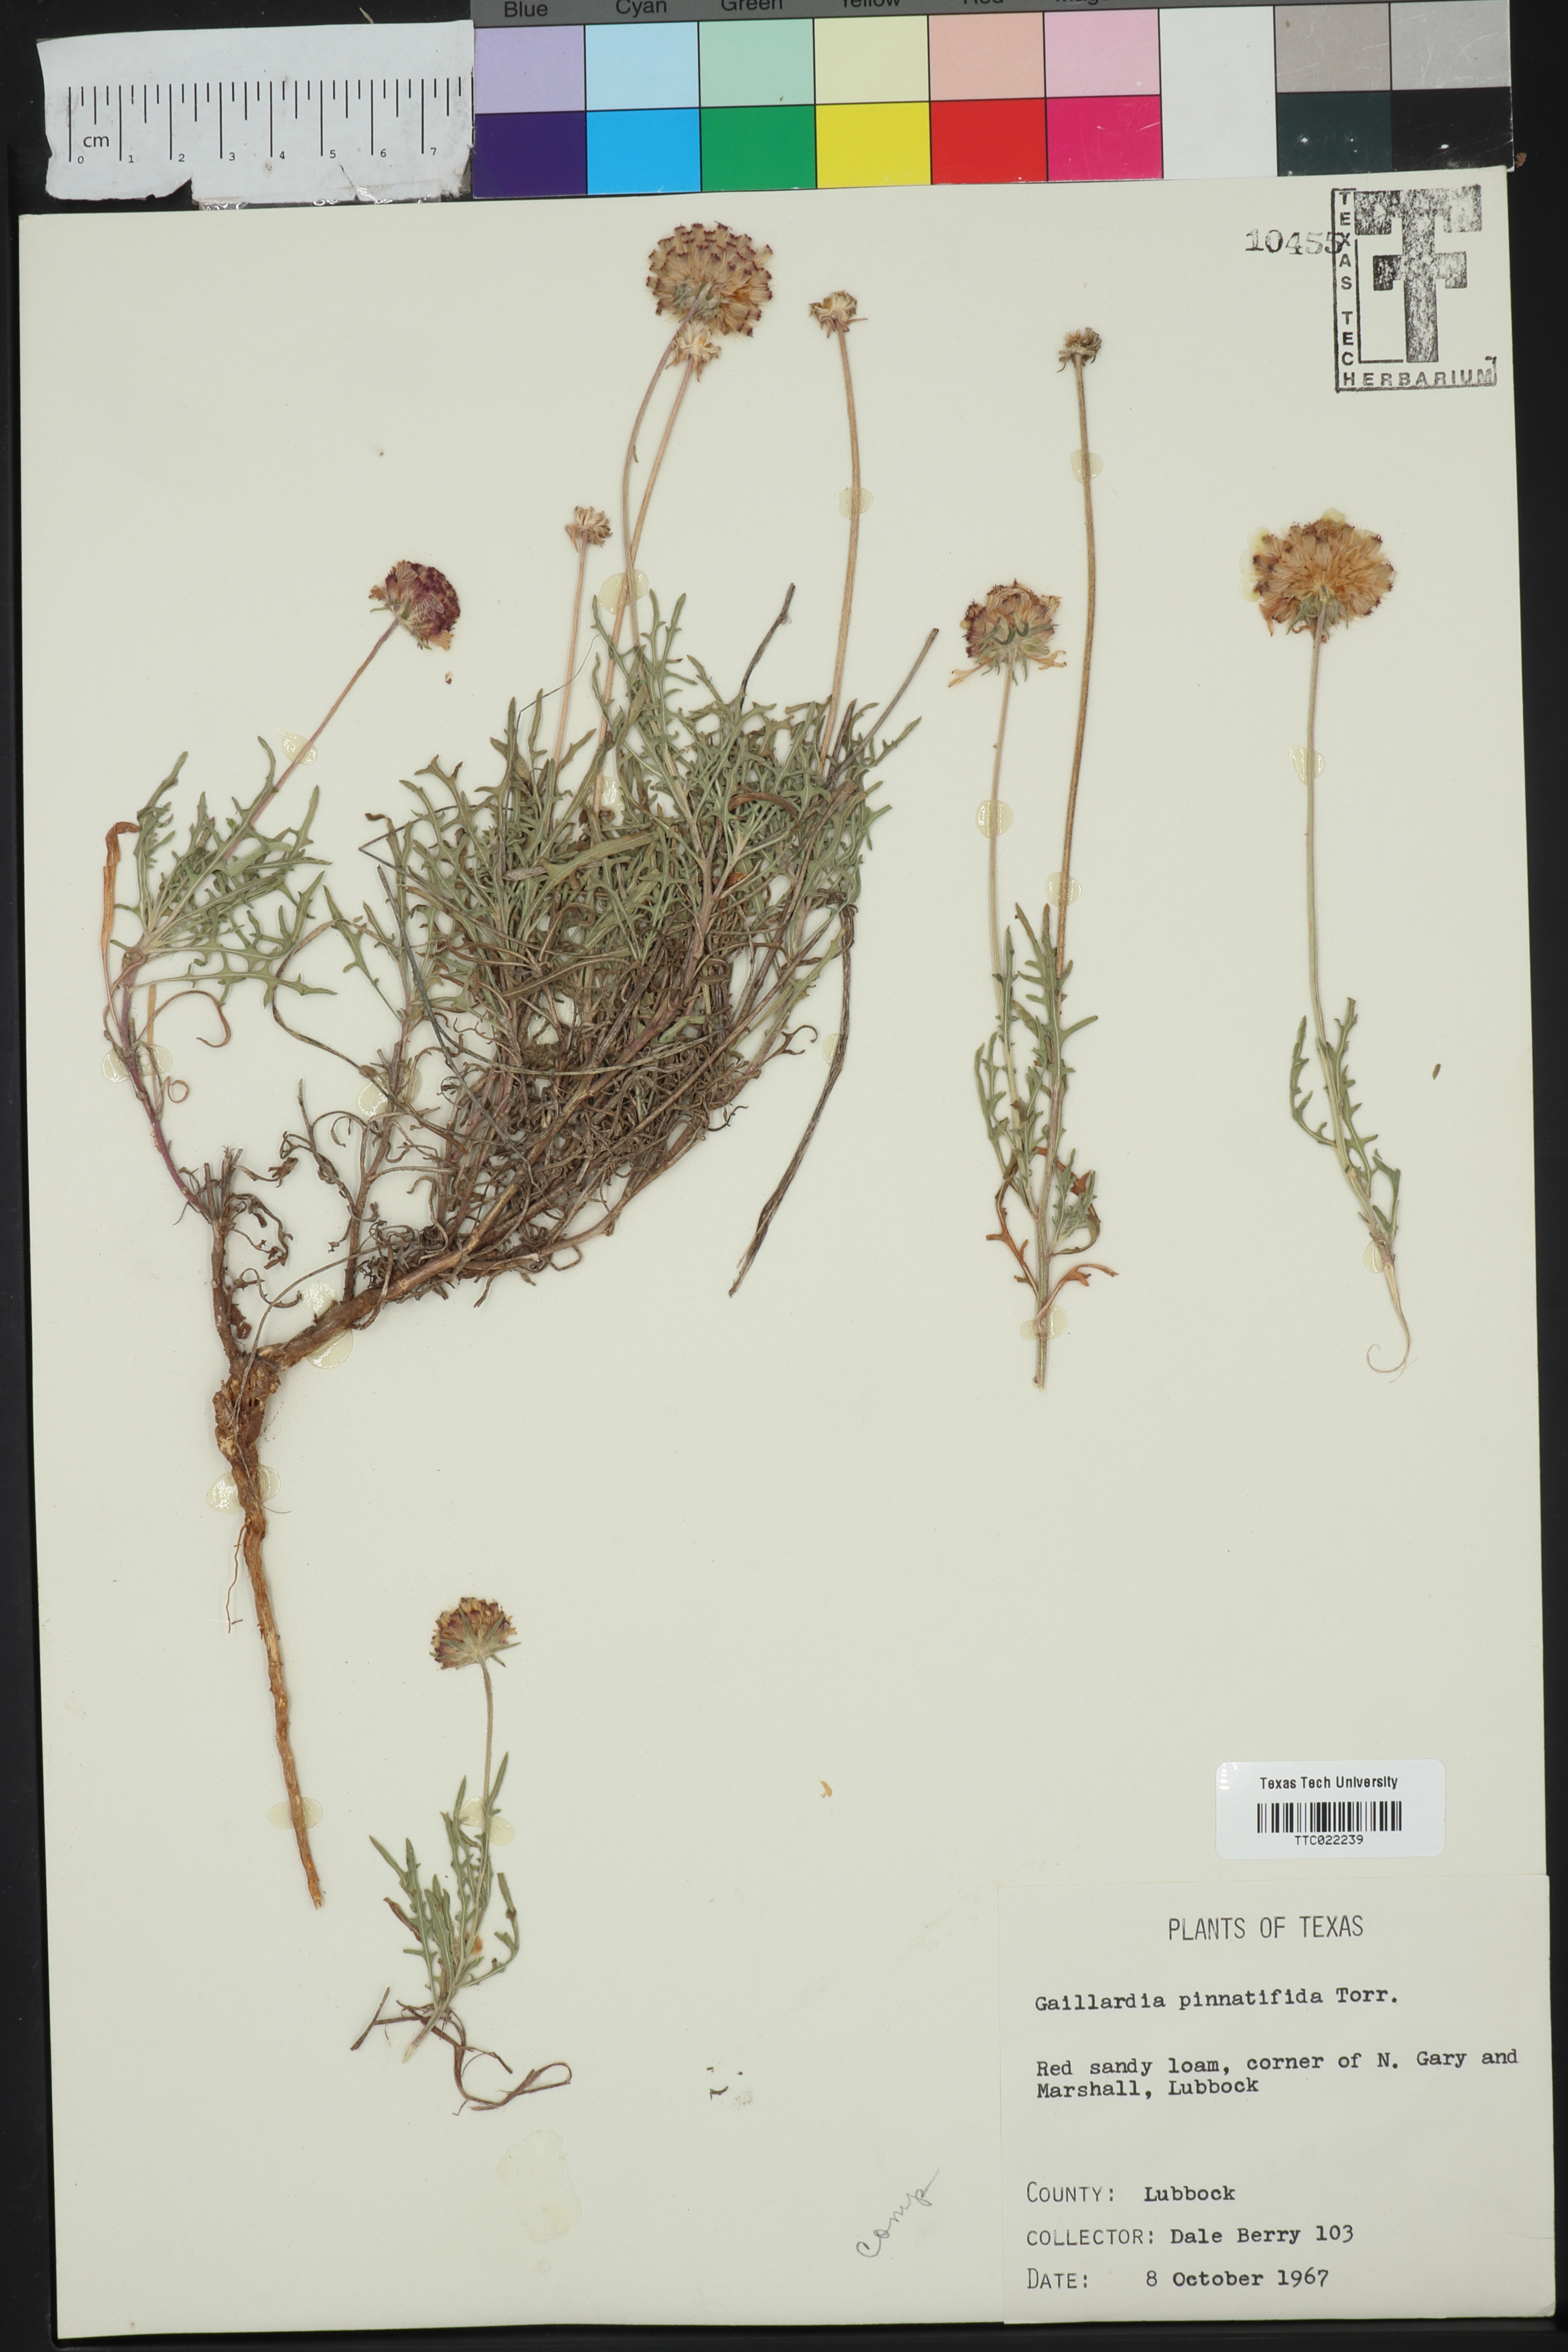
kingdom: Plantae
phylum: Tracheophyta
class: Magnoliopsida
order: Asterales
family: Asteraceae
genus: Gaillardia
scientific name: Gaillardia pinnatifida
